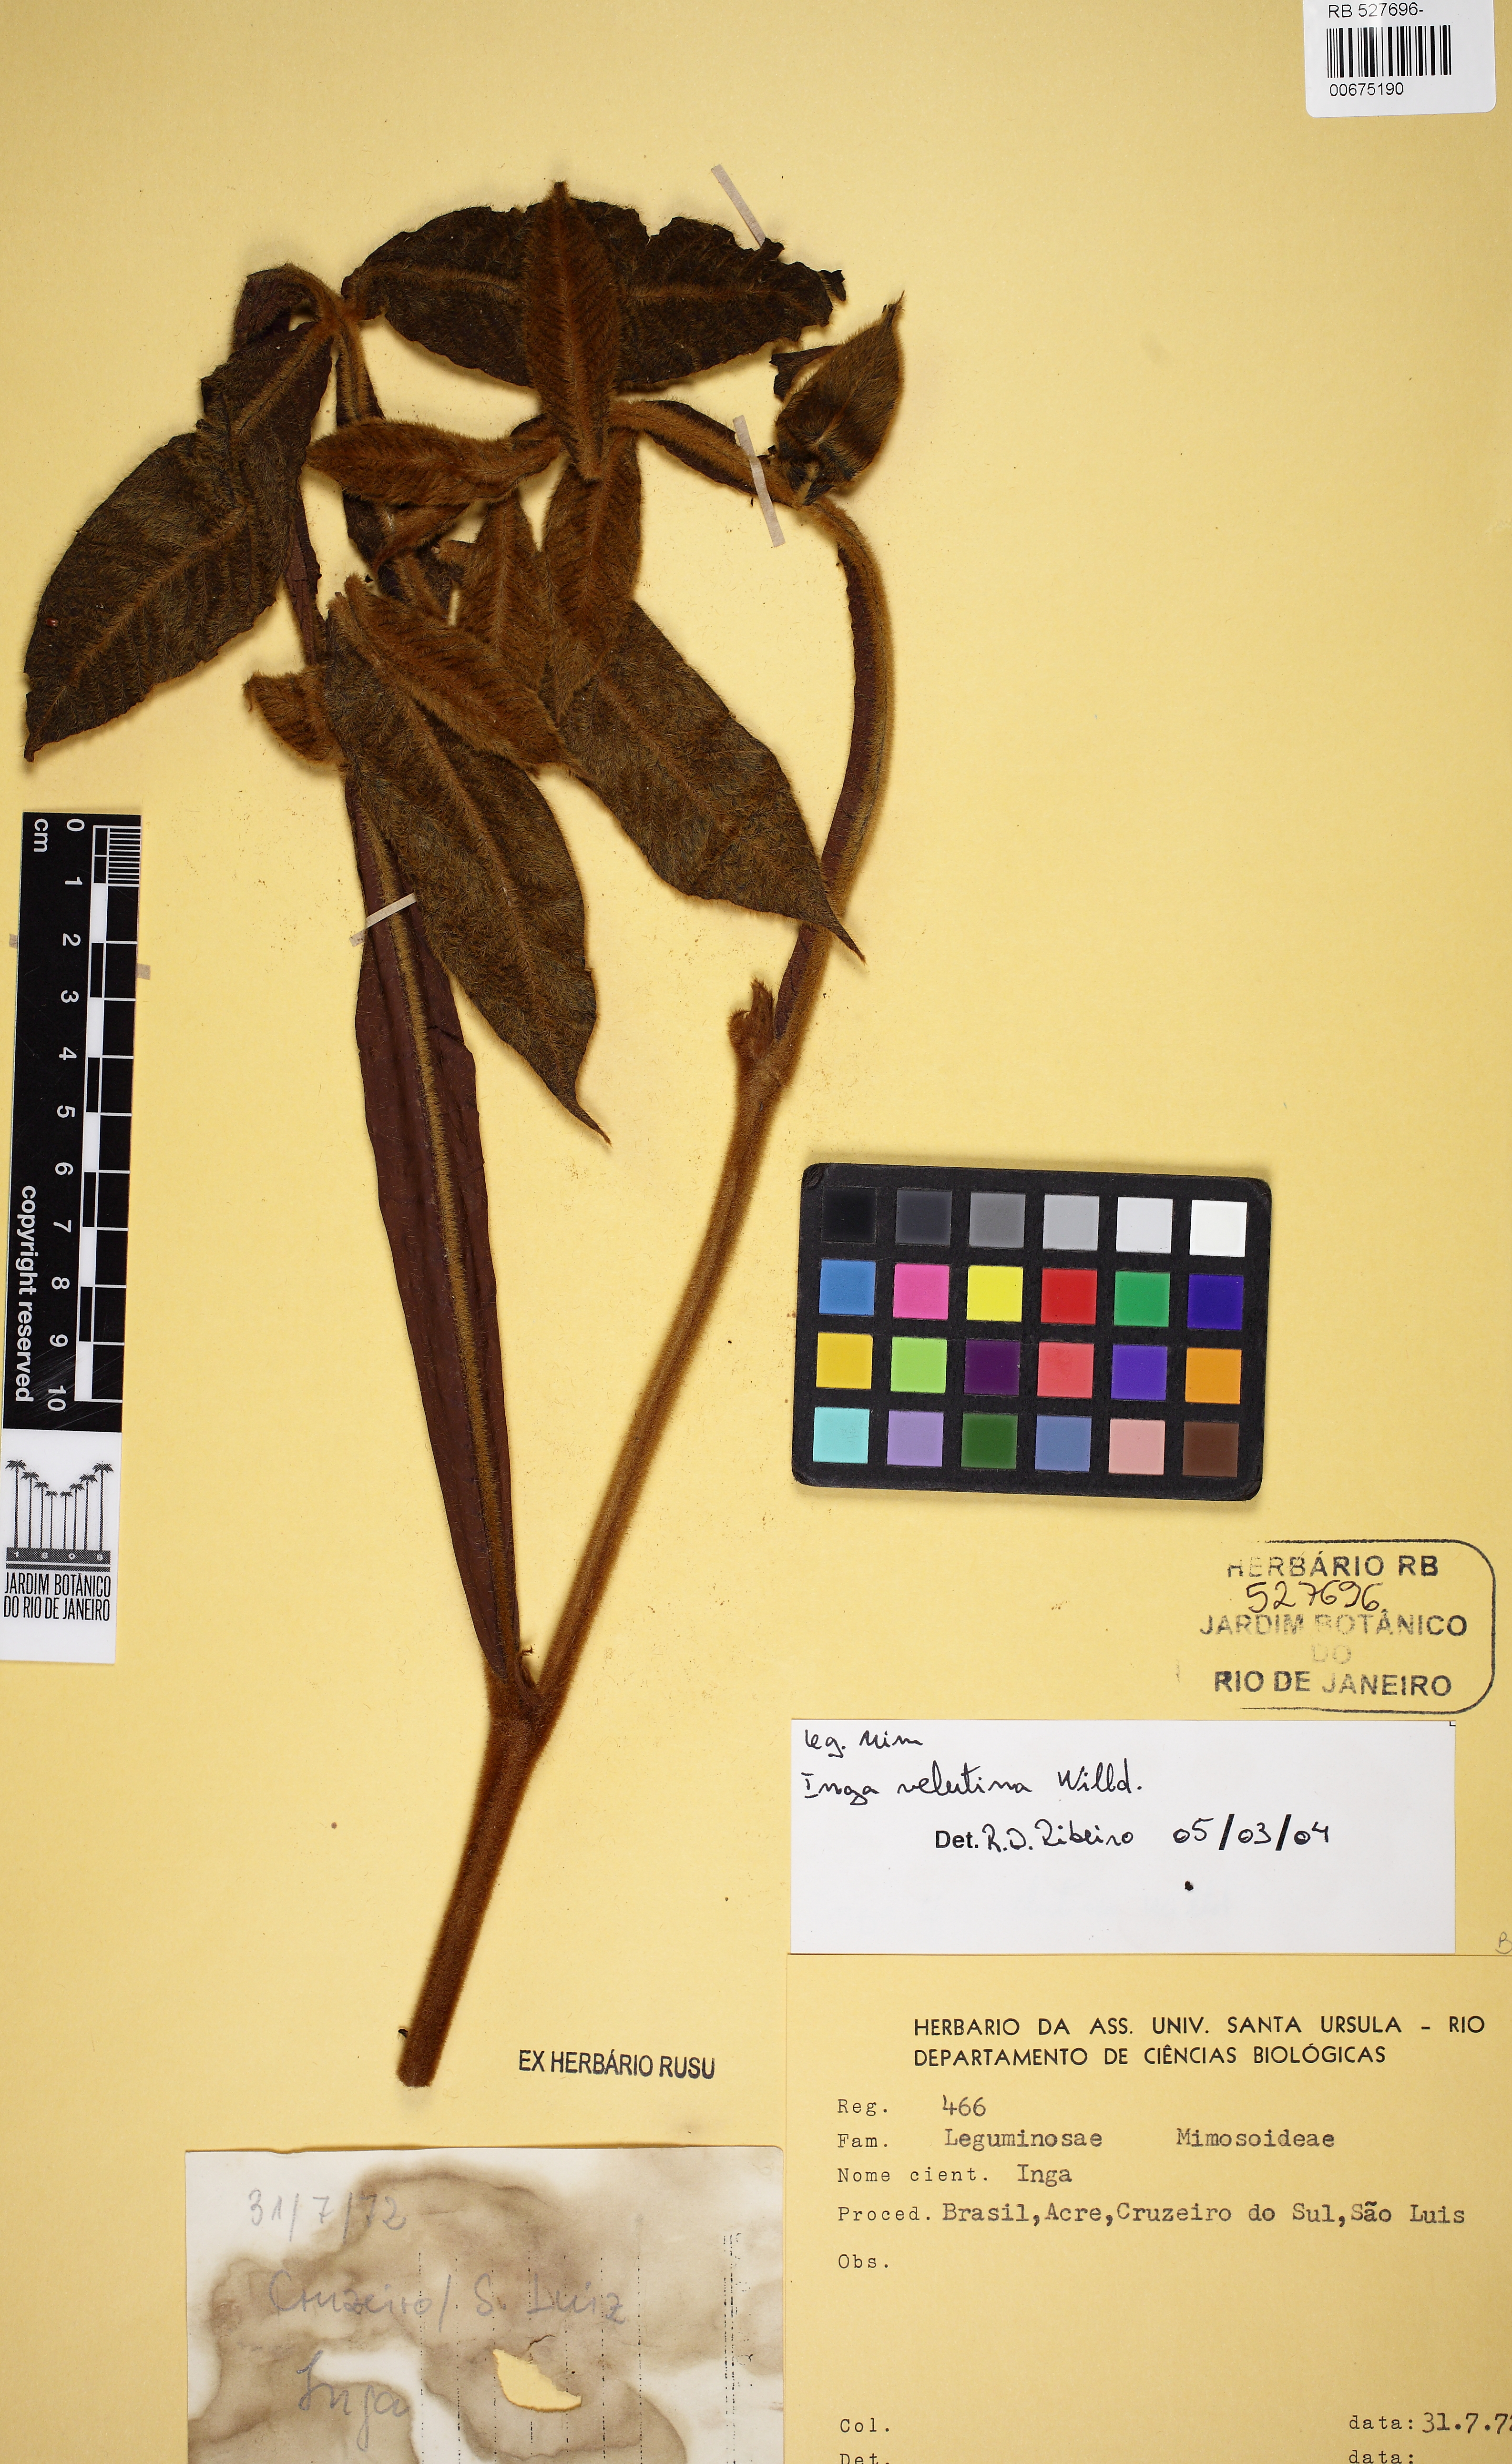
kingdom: Plantae
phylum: Tracheophyta
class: Magnoliopsida
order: Fabales
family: Fabaceae
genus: Inga
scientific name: Inga velutina
